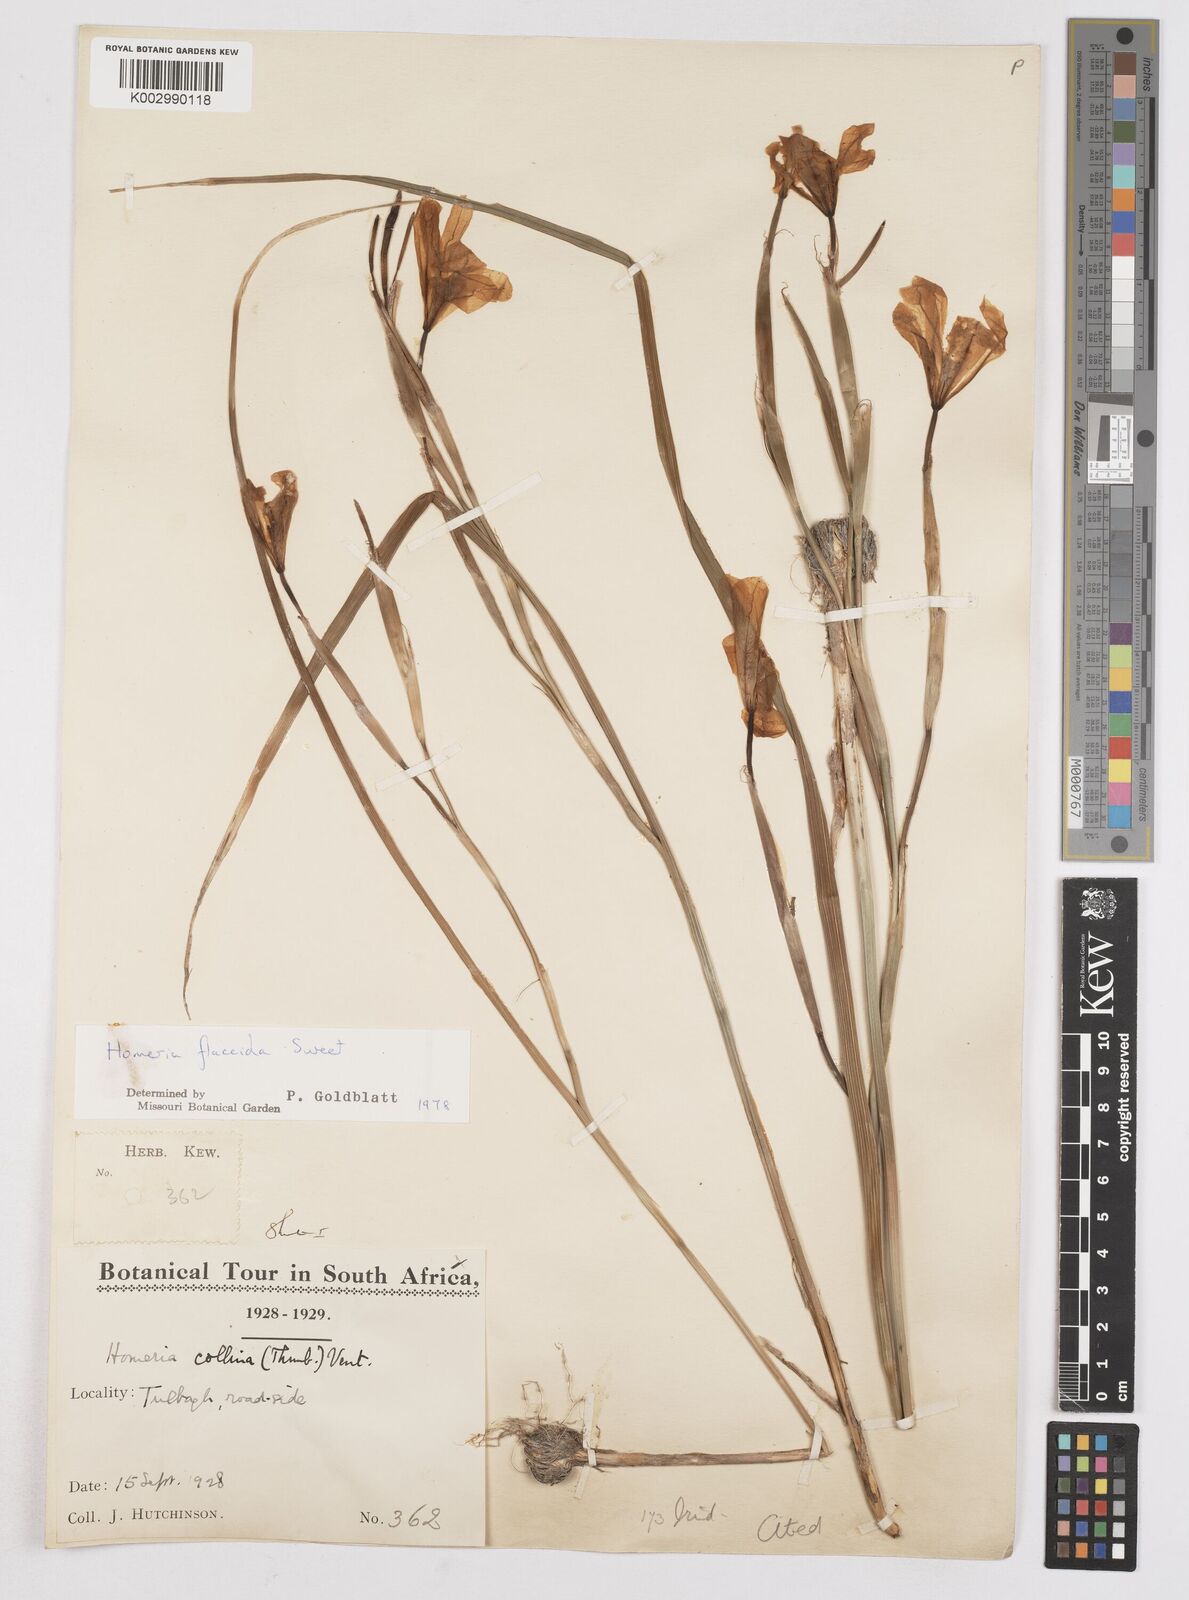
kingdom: Plantae
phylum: Tracheophyta
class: Liliopsida
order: Asparagales
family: Iridaceae
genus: Moraea
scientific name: Moraea flaccida
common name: One-leaf cape-tulip
